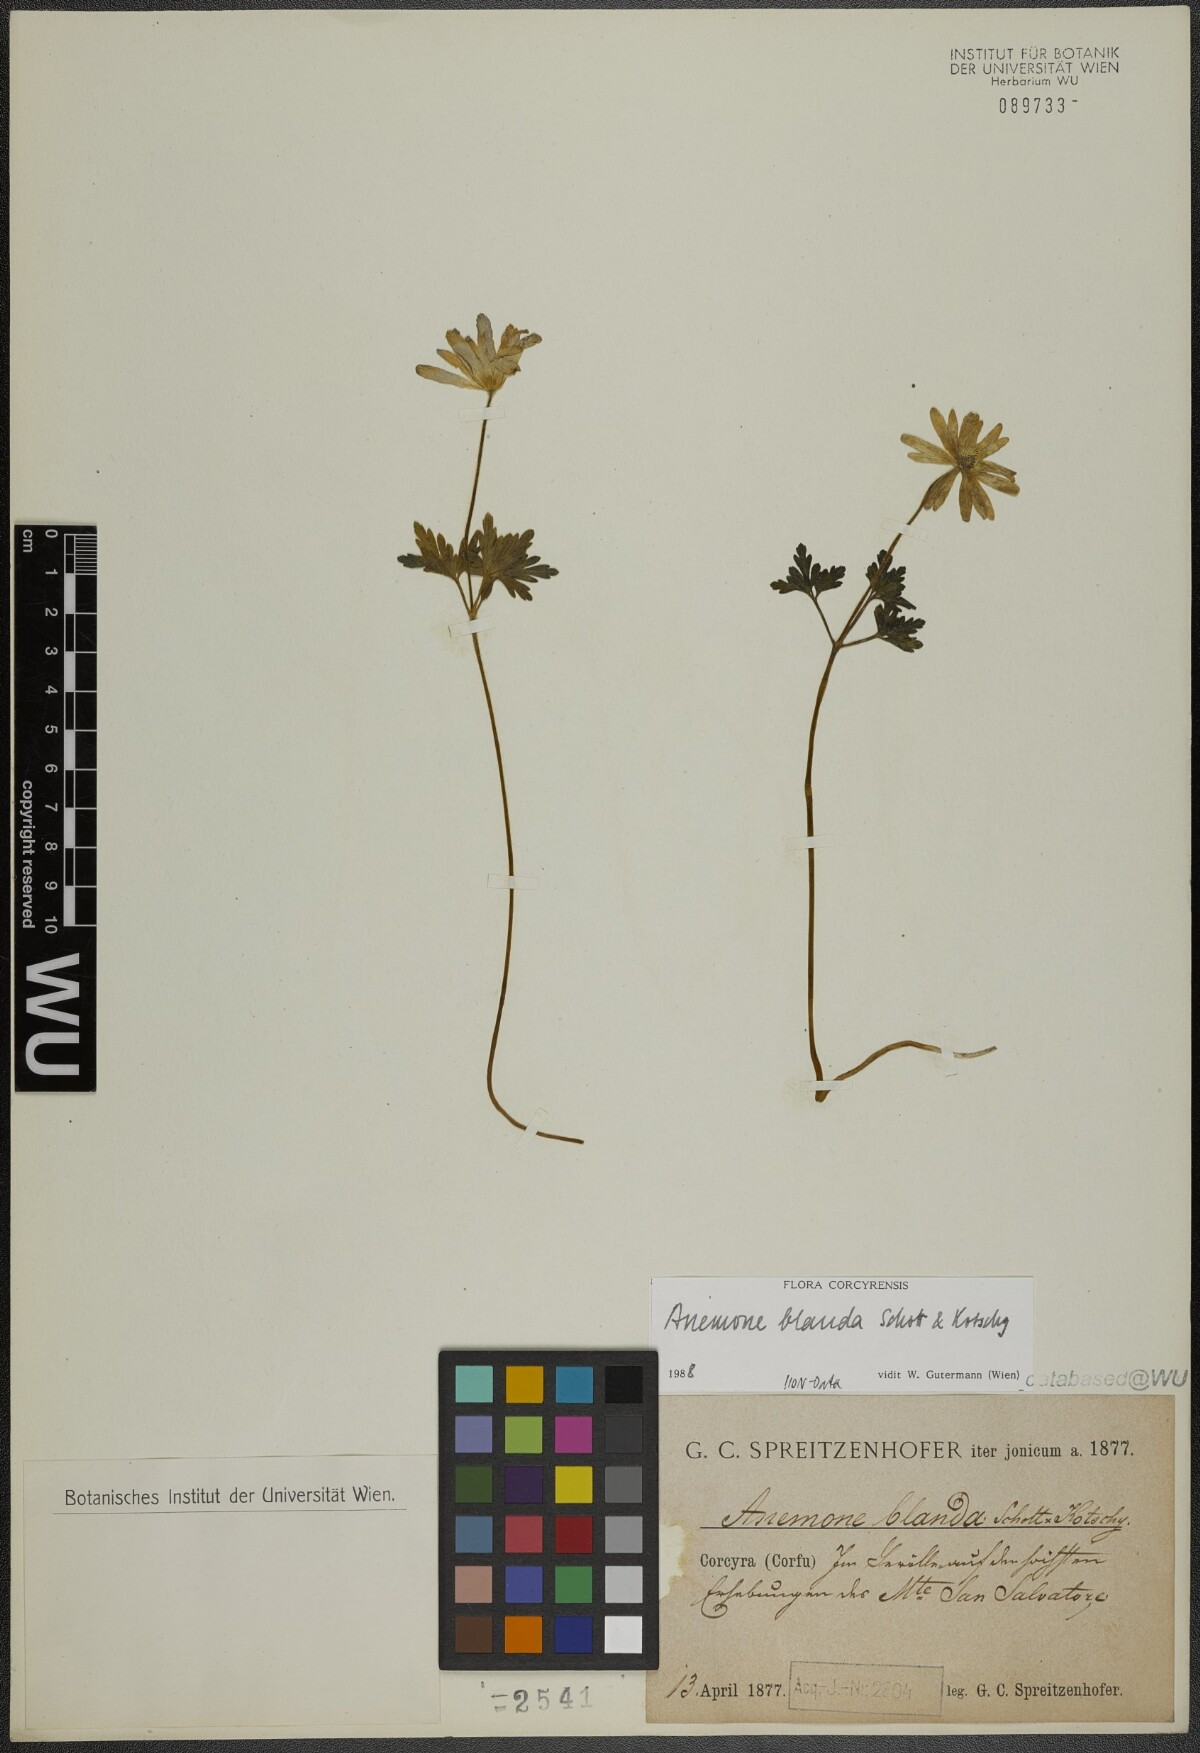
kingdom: Plantae
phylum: Tracheophyta
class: Magnoliopsida
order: Ranunculales
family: Ranunculaceae
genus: Anemone
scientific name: Anemone blanda
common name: Balkan anemone
